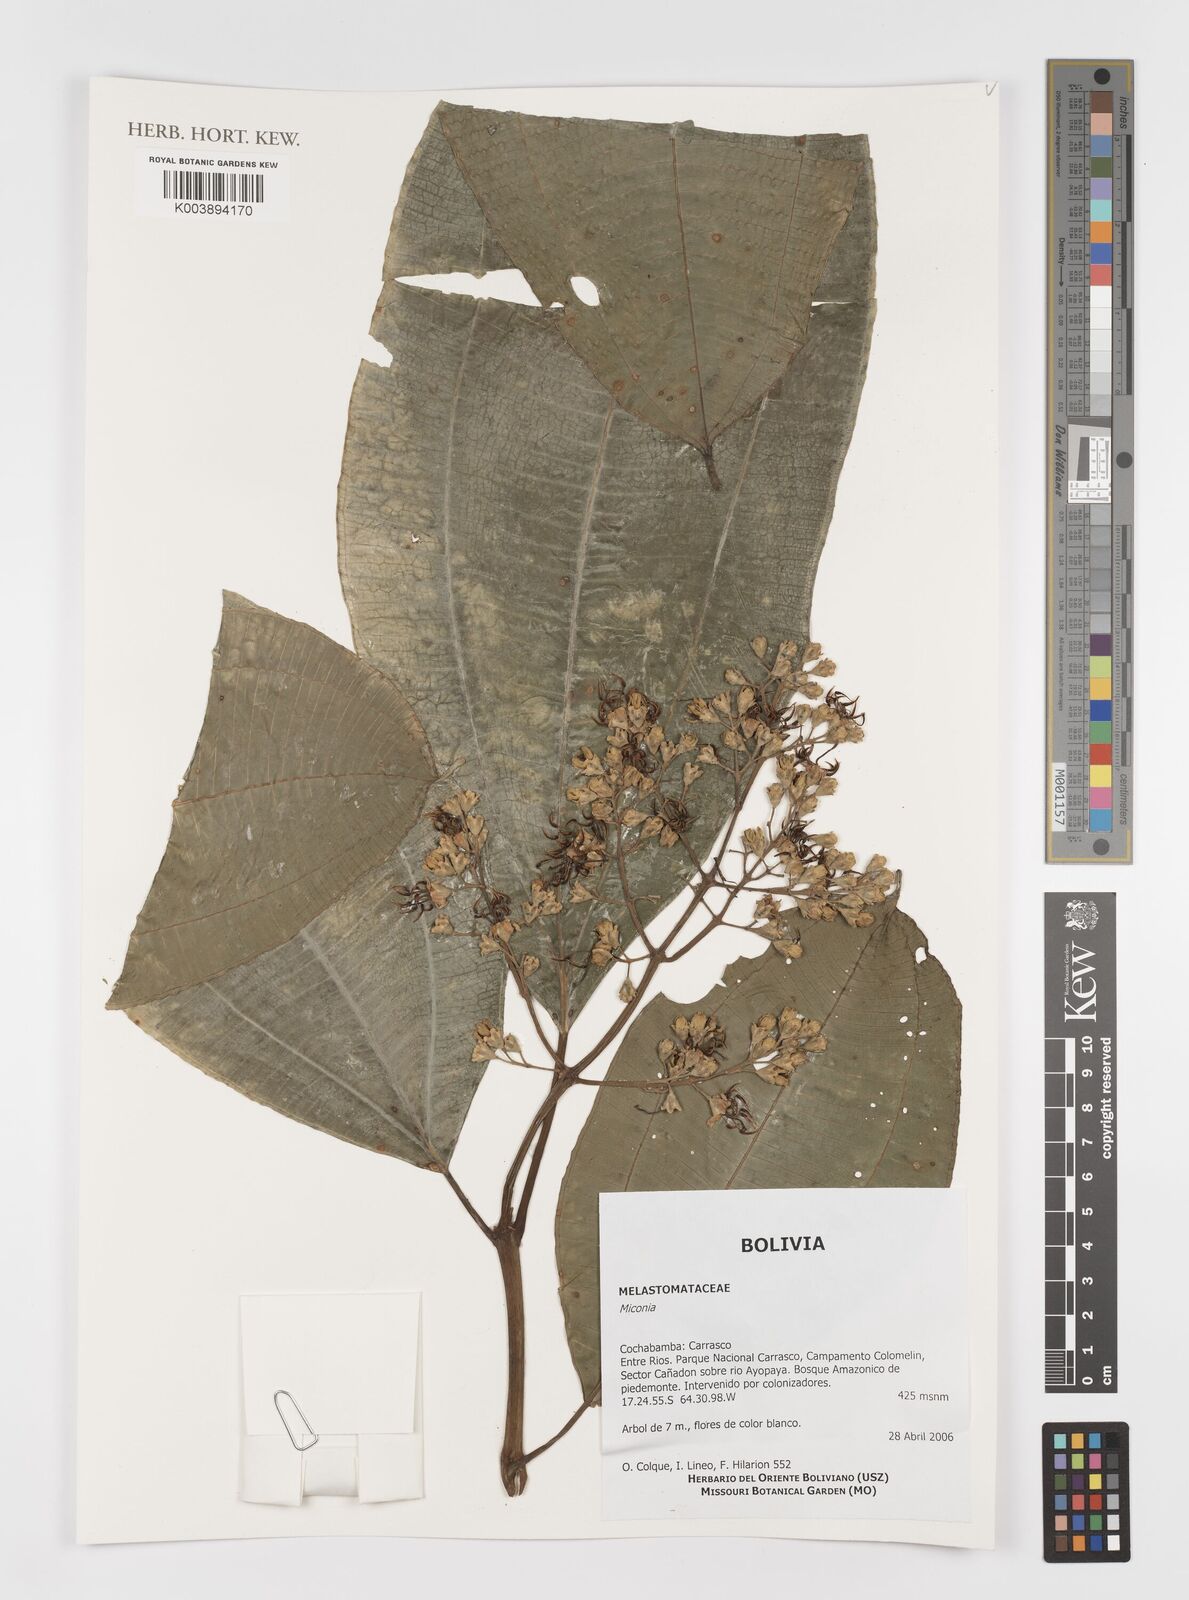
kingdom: Plantae
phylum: Tracheophyta
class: Magnoliopsida
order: Myrtales
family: Melastomataceae
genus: Miconia
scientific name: Miconia
